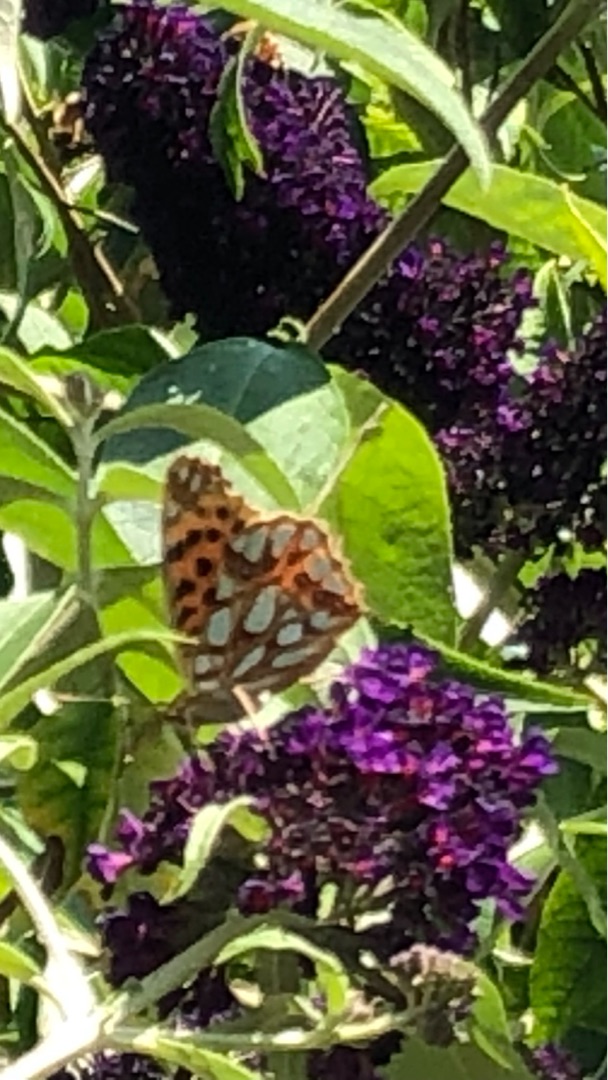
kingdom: Animalia
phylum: Arthropoda
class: Insecta
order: Lepidoptera
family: Nymphalidae
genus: Issoria
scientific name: Issoria lathonia
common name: Storplettet perlemorsommerfugl
